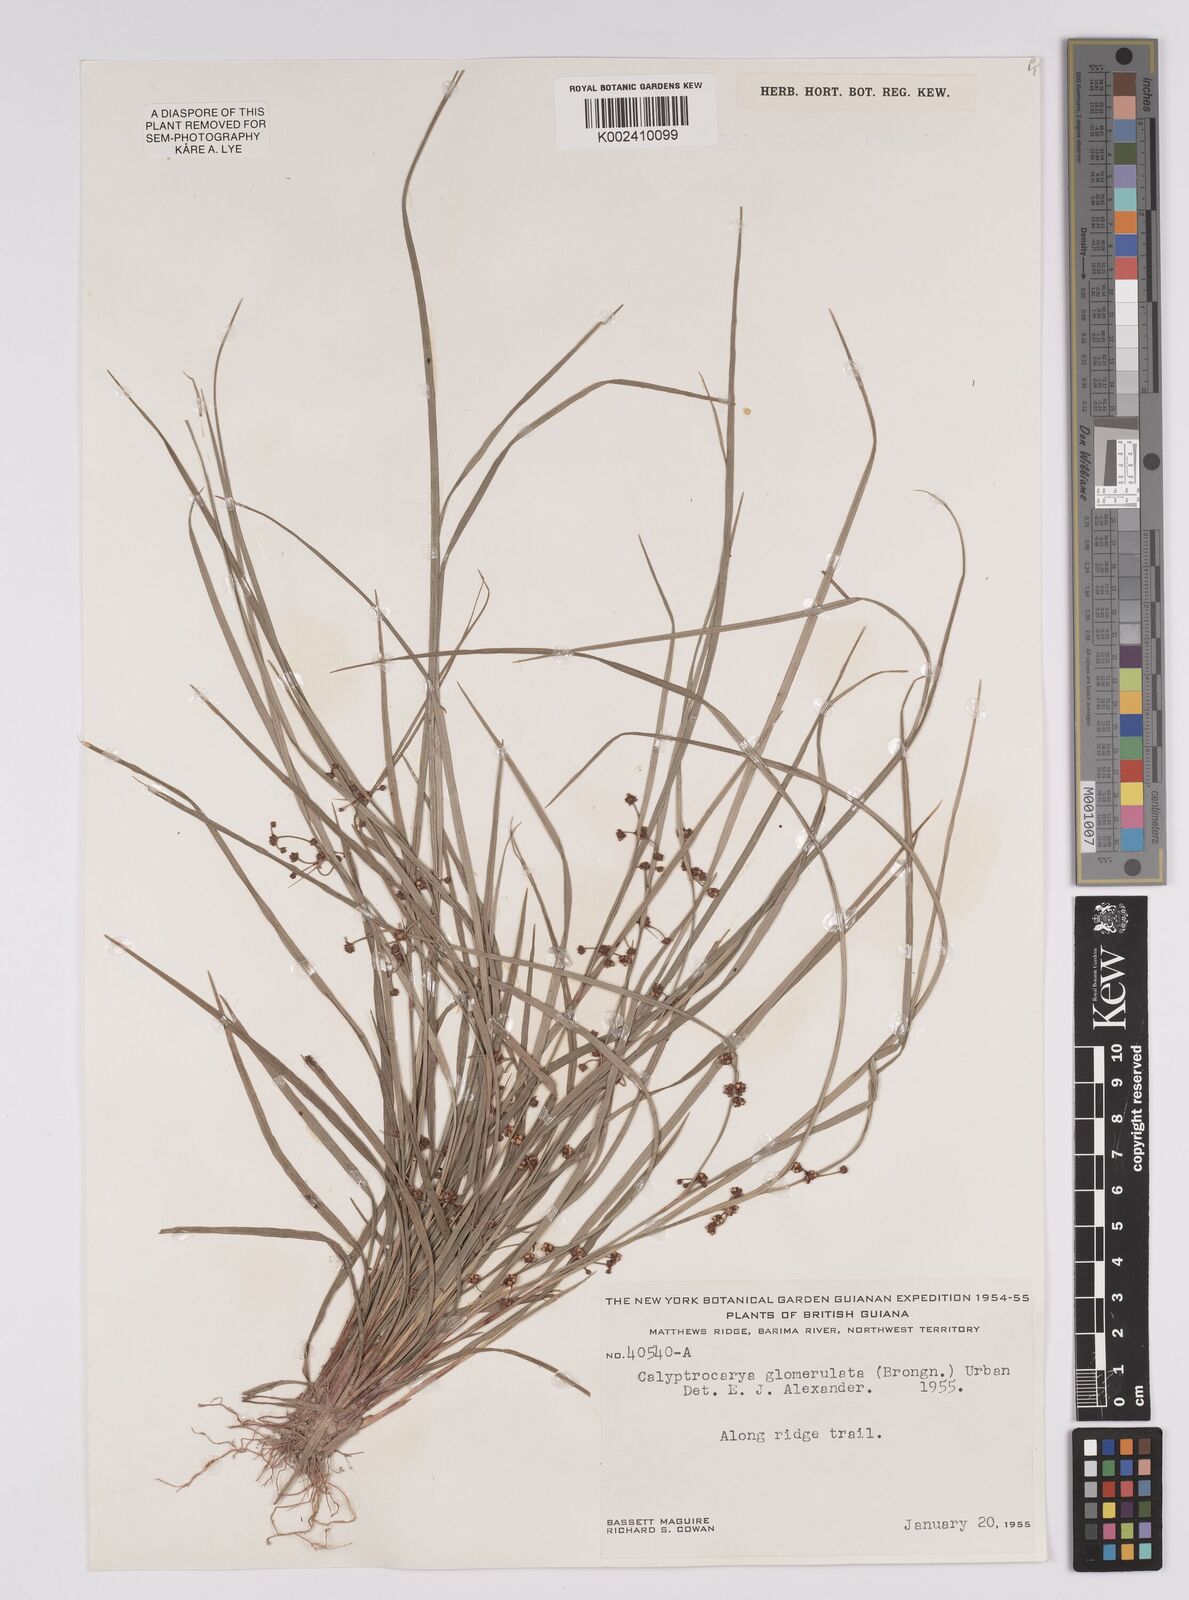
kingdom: Plantae
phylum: Tracheophyta
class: Liliopsida
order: Poales
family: Cyperaceae
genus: Calyptrocarya
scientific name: Calyptrocarya glomerulata
